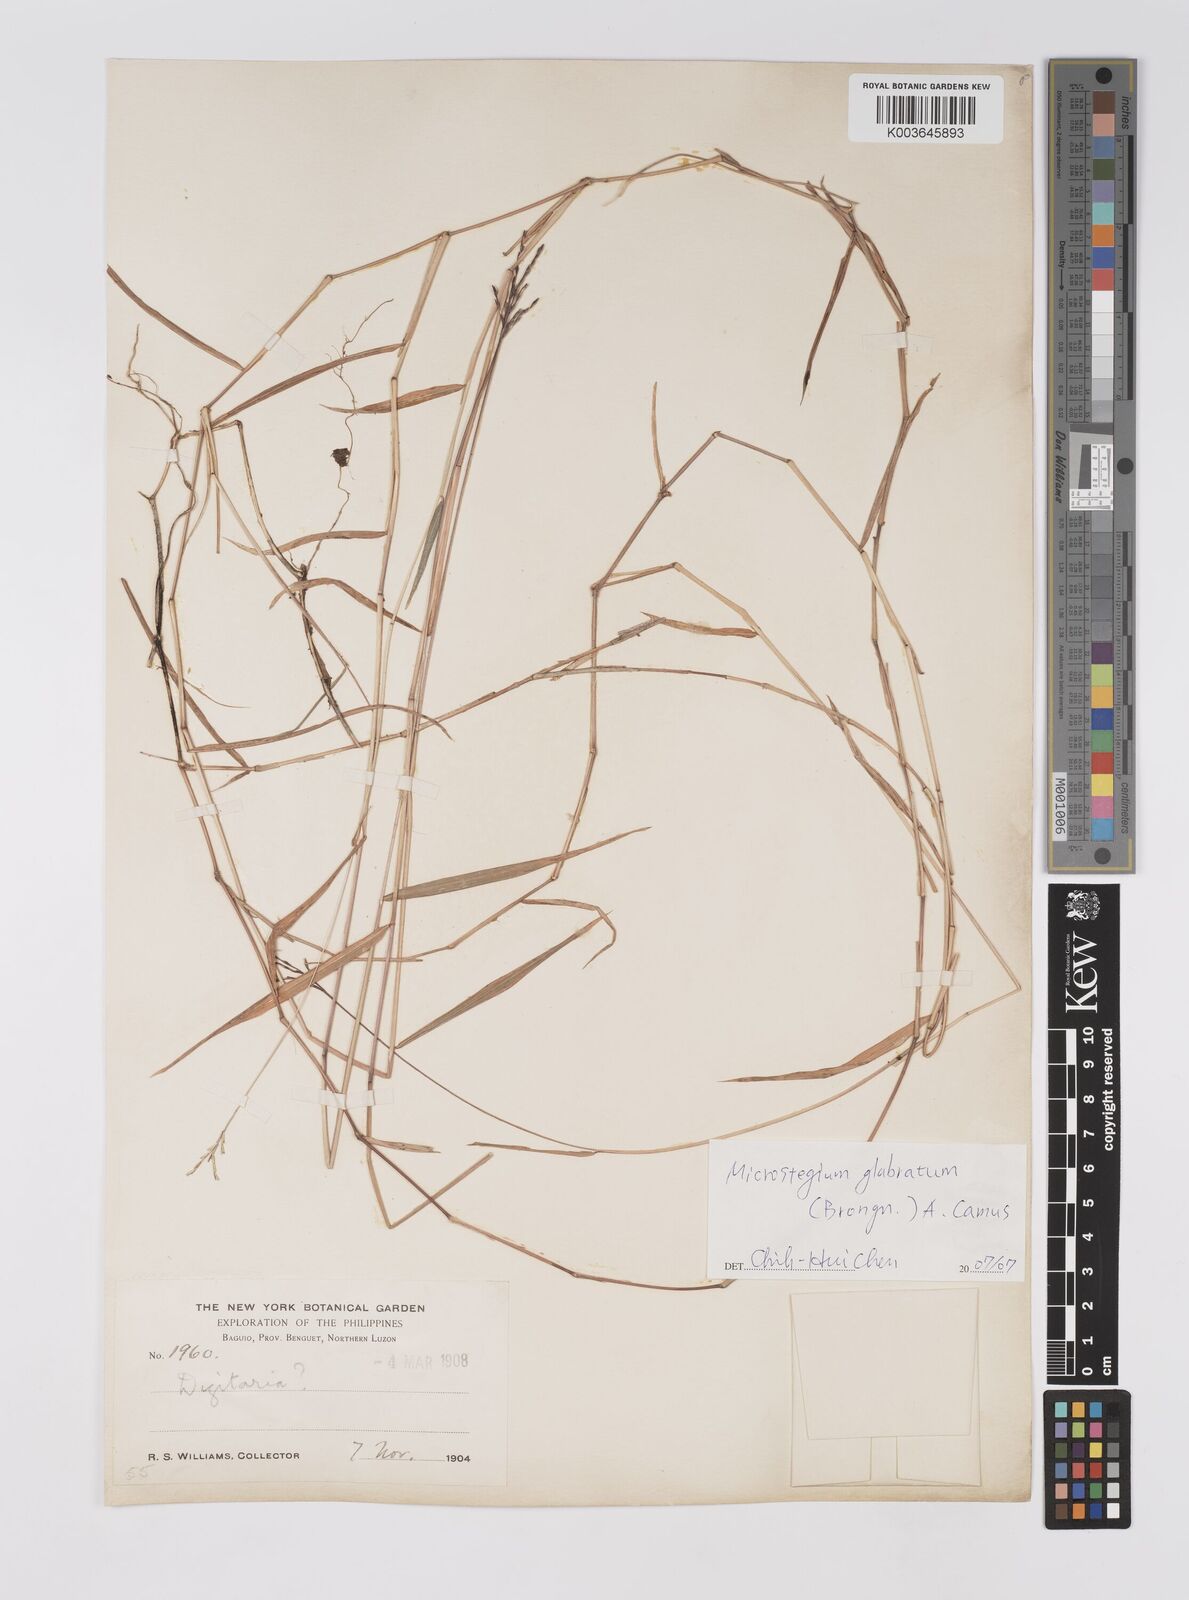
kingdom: Plantae
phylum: Tracheophyta
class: Liliopsida
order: Poales
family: Poaceae
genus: Microstegium
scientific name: Microstegium glabratum
